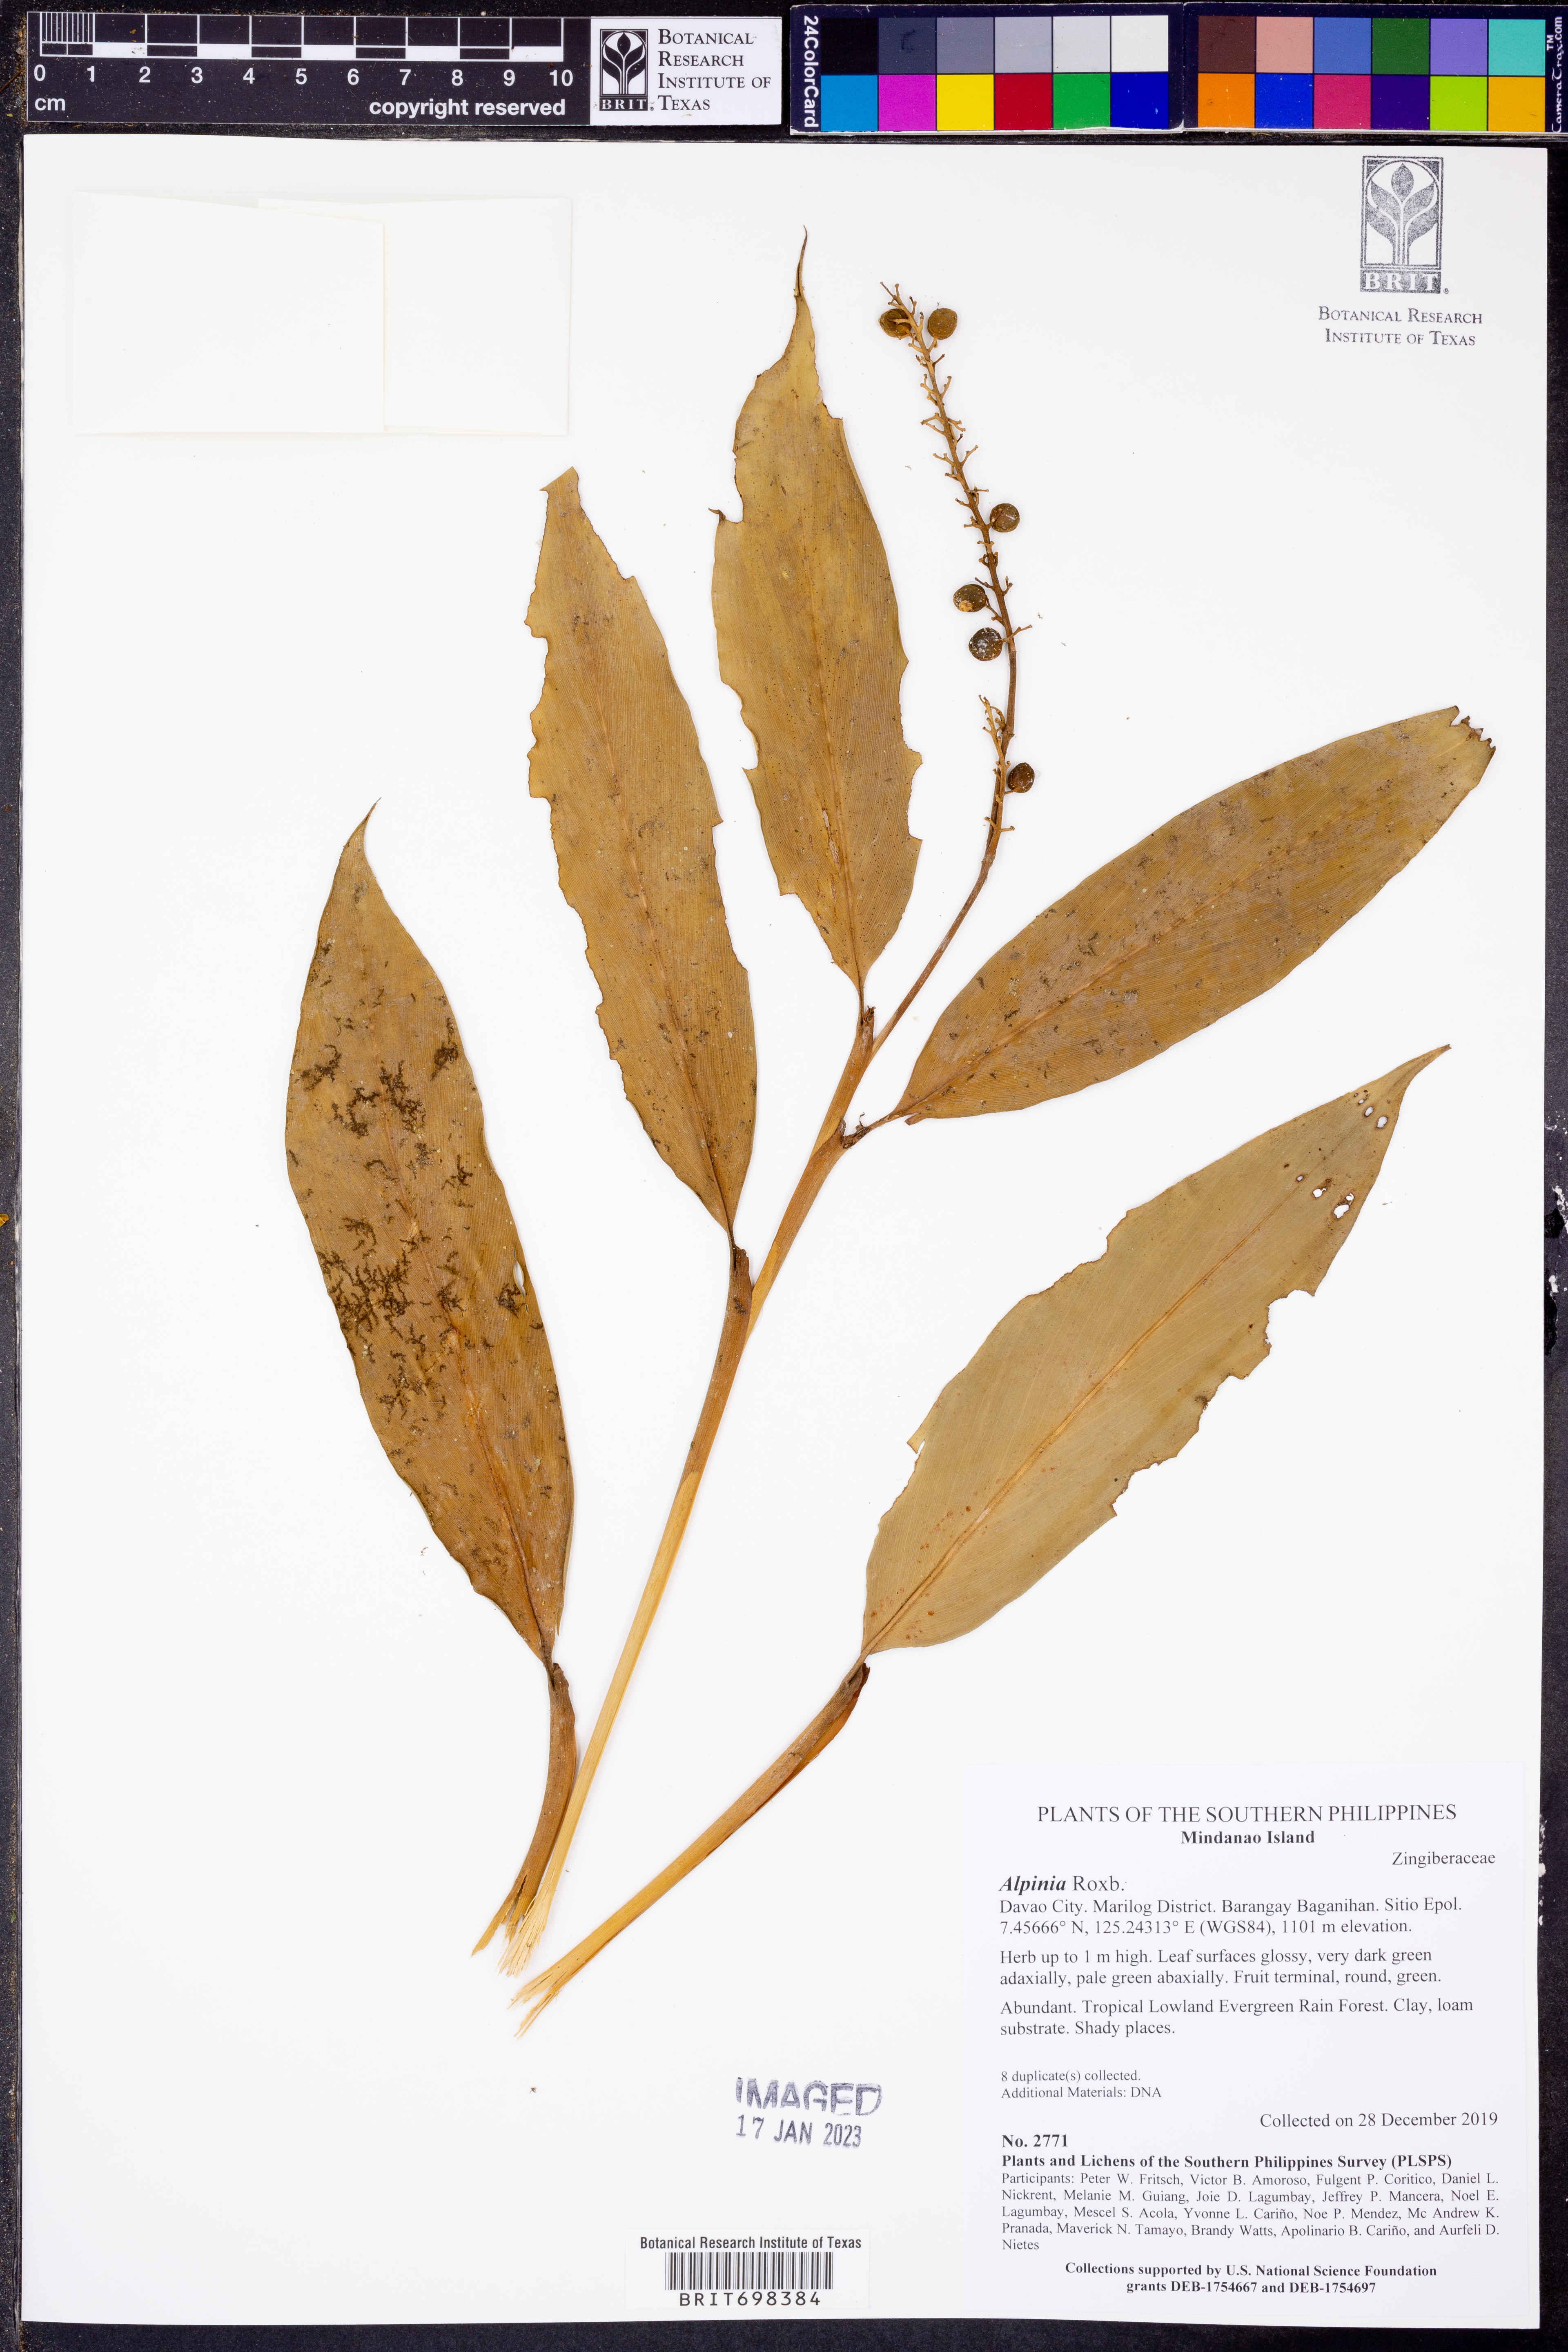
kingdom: Plantae
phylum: Tracheophyta
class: Liliopsida
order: Zingiberales
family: Zingiberaceae
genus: Alpinia
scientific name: Alpinia
